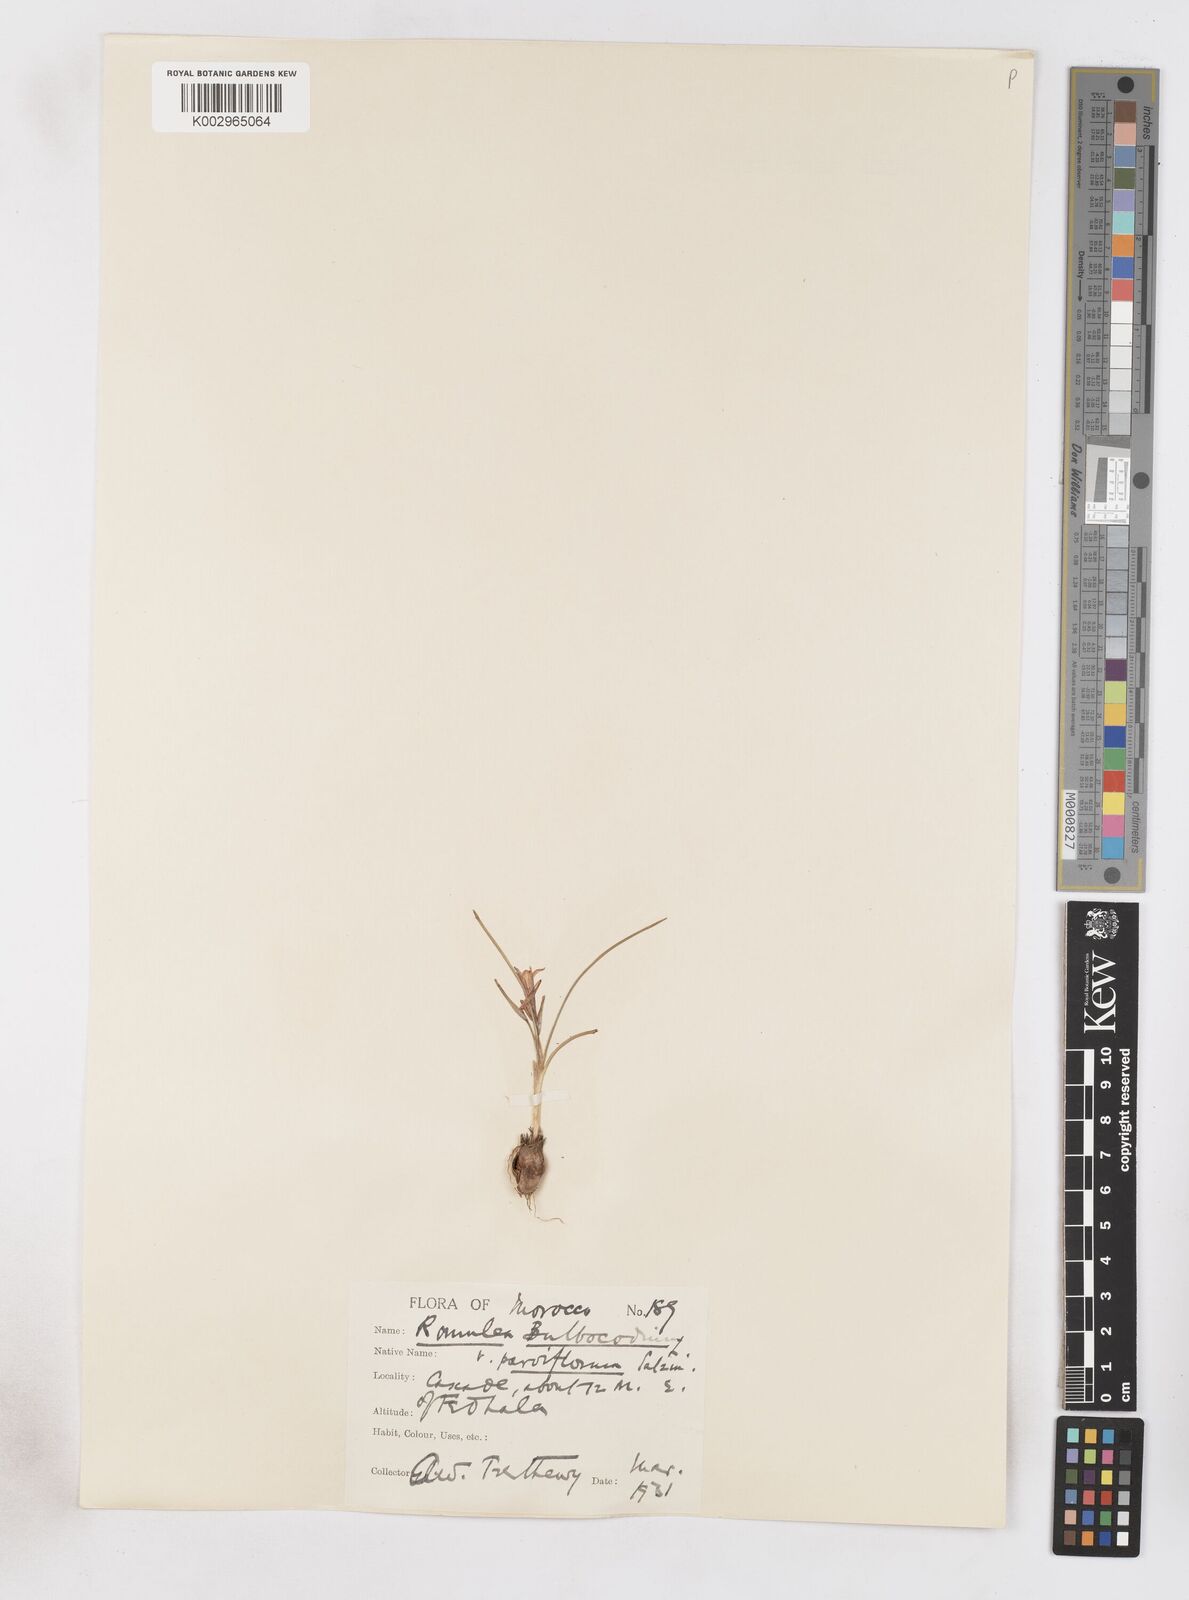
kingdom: Plantae
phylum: Tracheophyta
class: Liliopsida
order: Asparagales
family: Iridaceae
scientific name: Iridaceae
